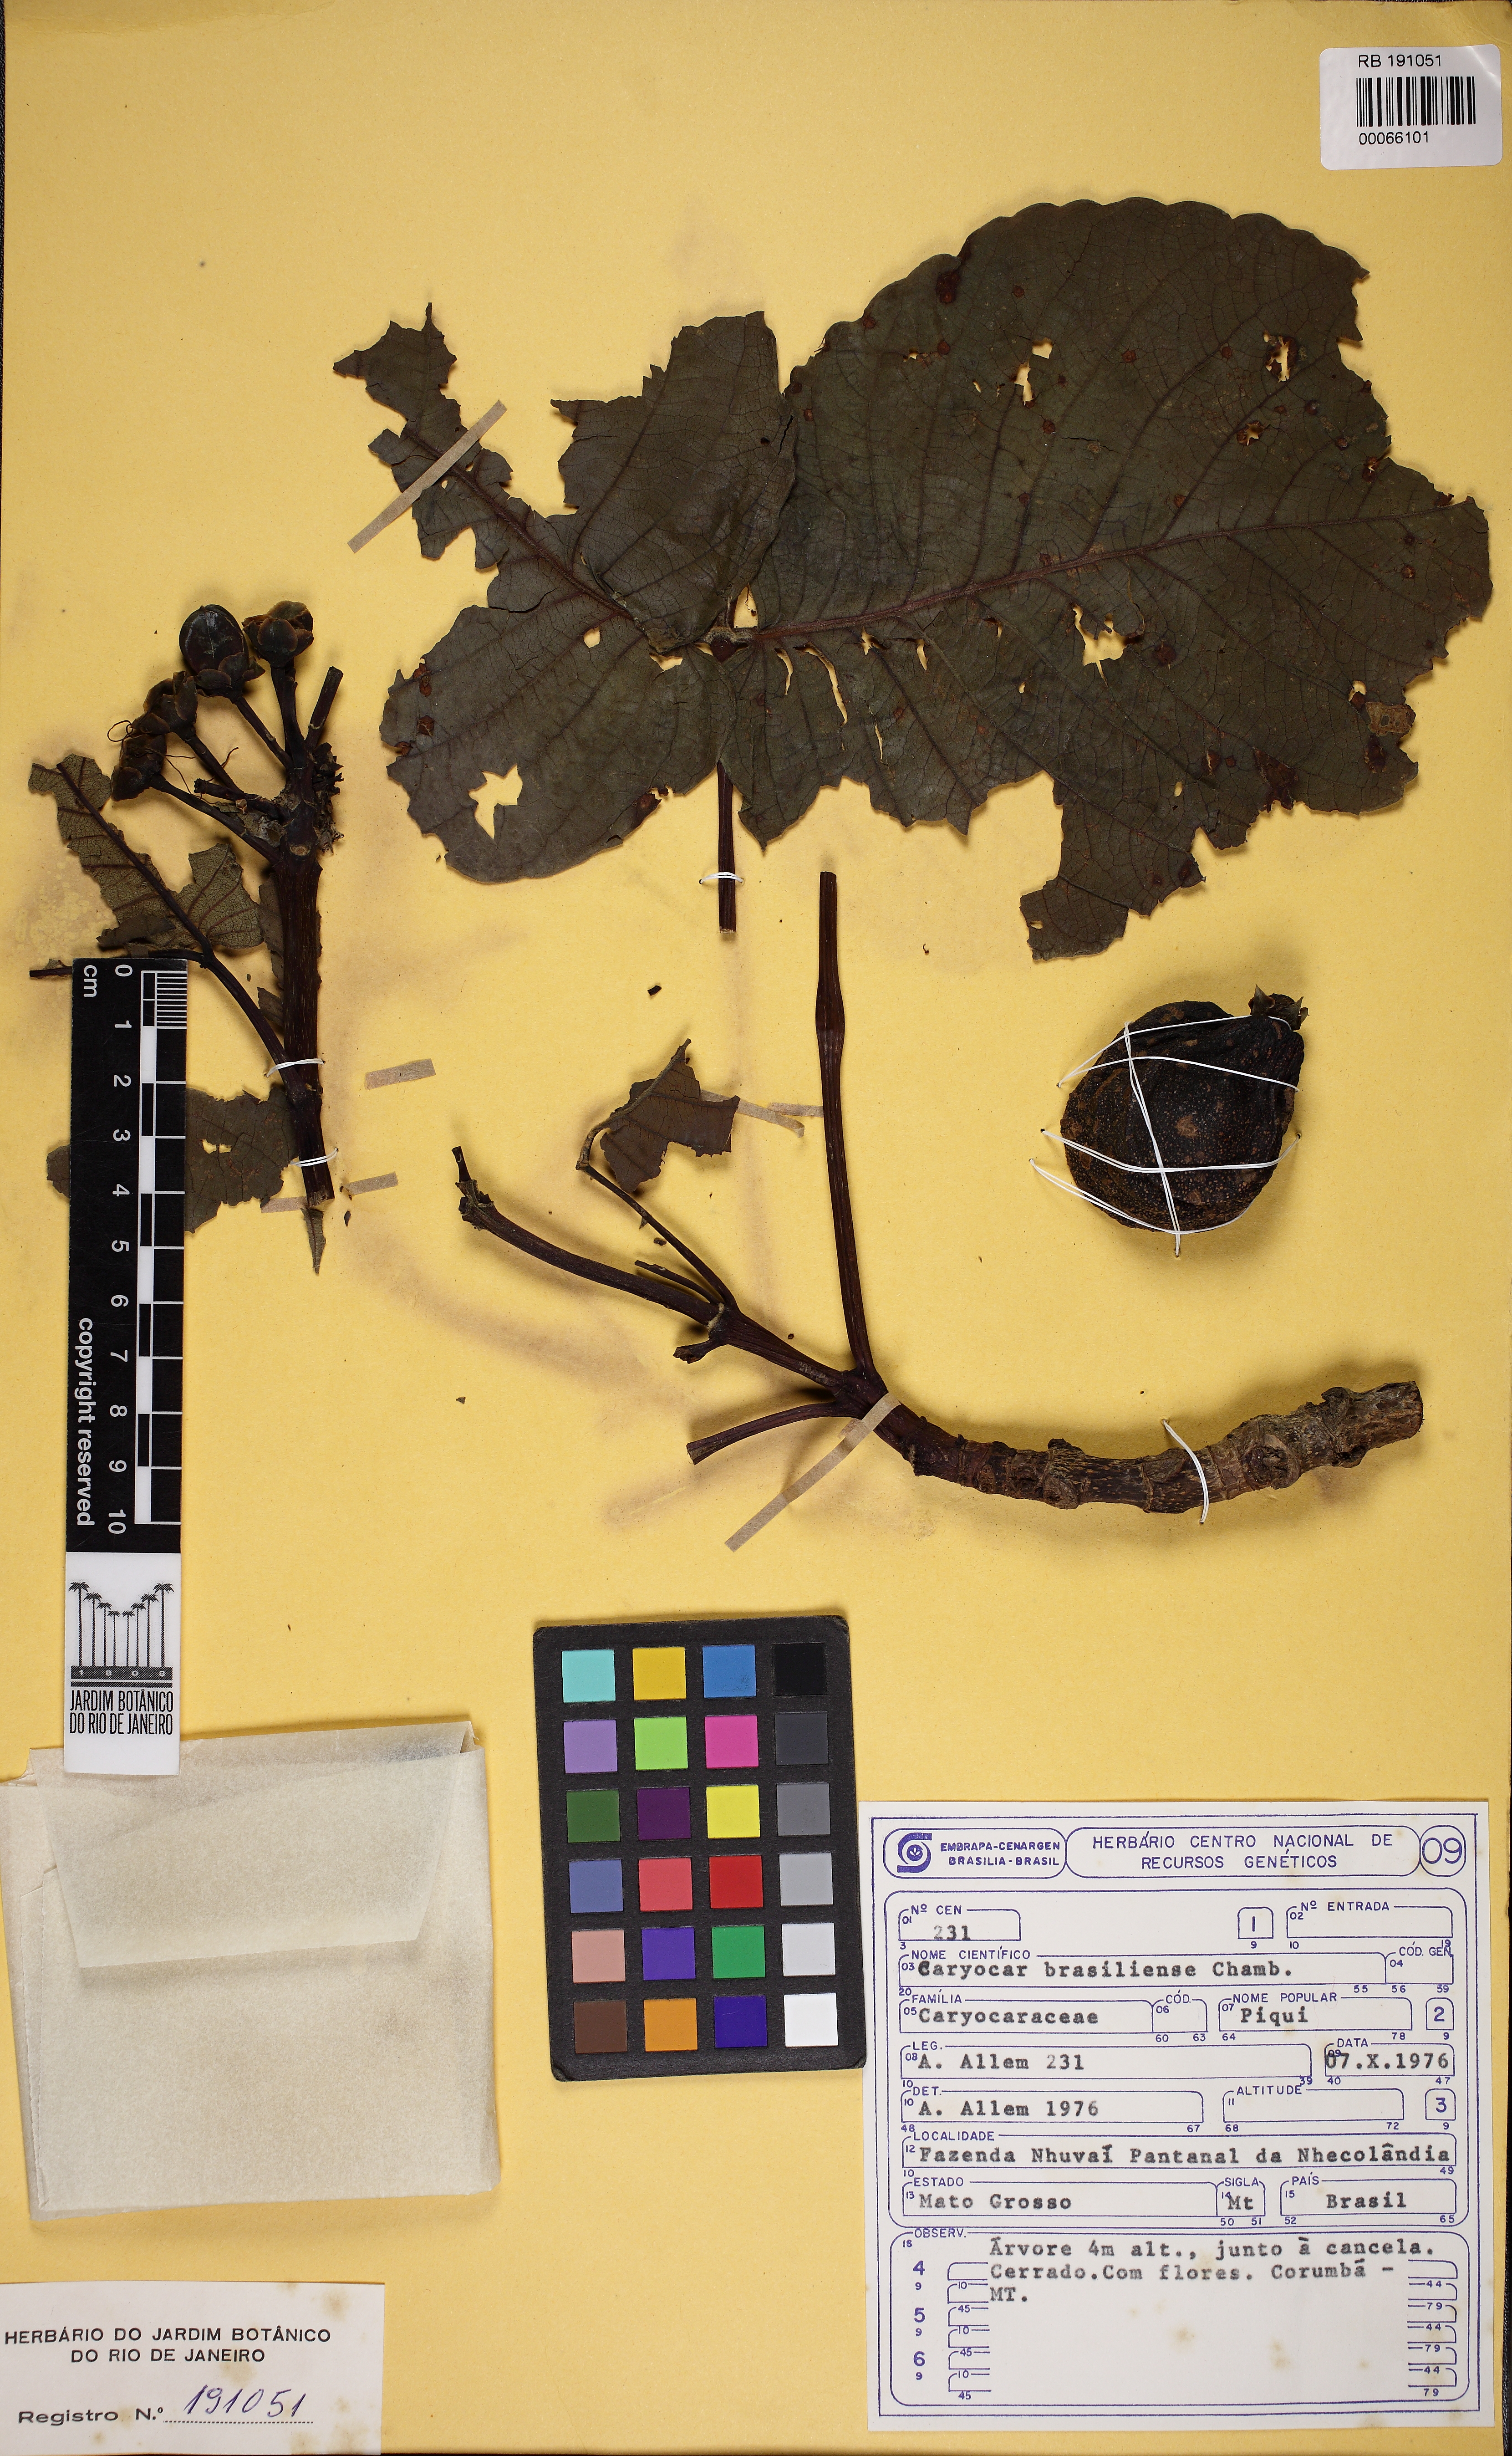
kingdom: Plantae
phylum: Tracheophyta
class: Magnoliopsida
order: Malpighiales
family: Caryocaraceae
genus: Caryocar
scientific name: Caryocar brasiliense
